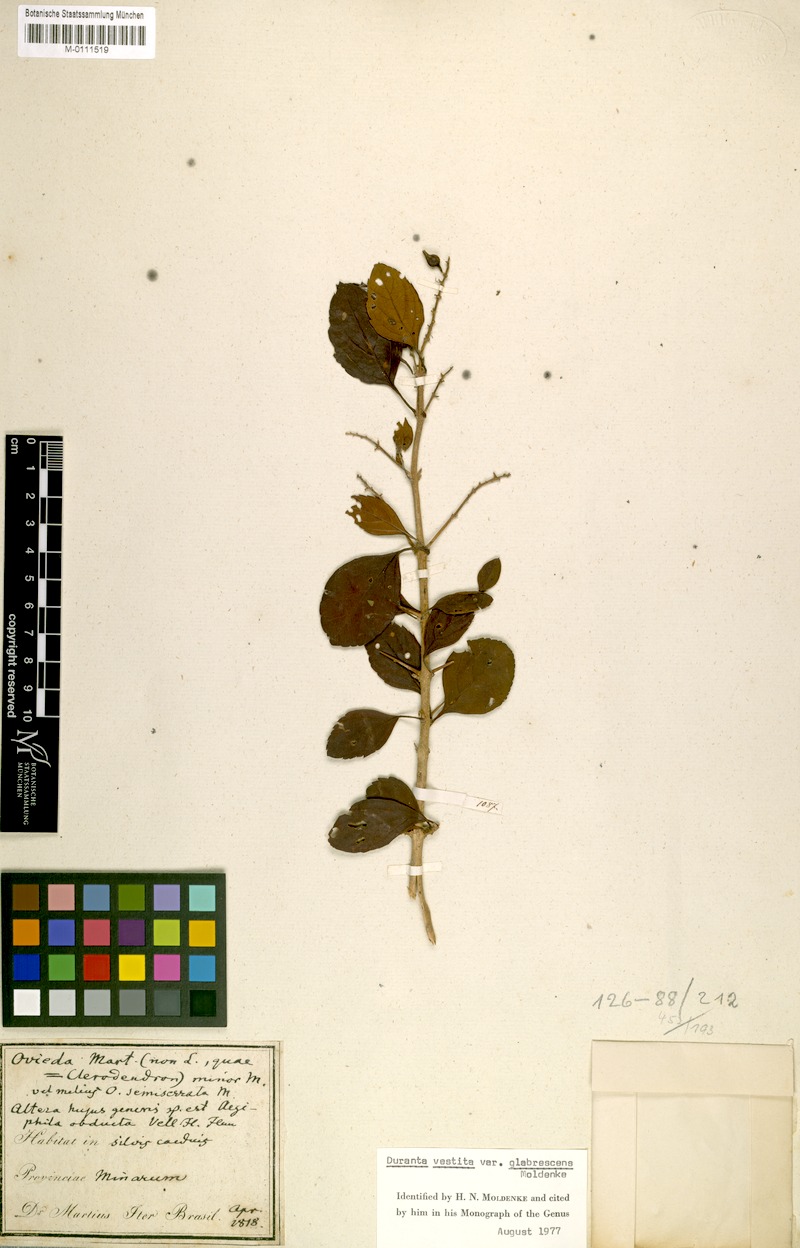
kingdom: Plantae
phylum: Tracheophyta
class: Magnoliopsida
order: Lamiales
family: Verbenaceae
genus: Duranta
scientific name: Duranta vestita
